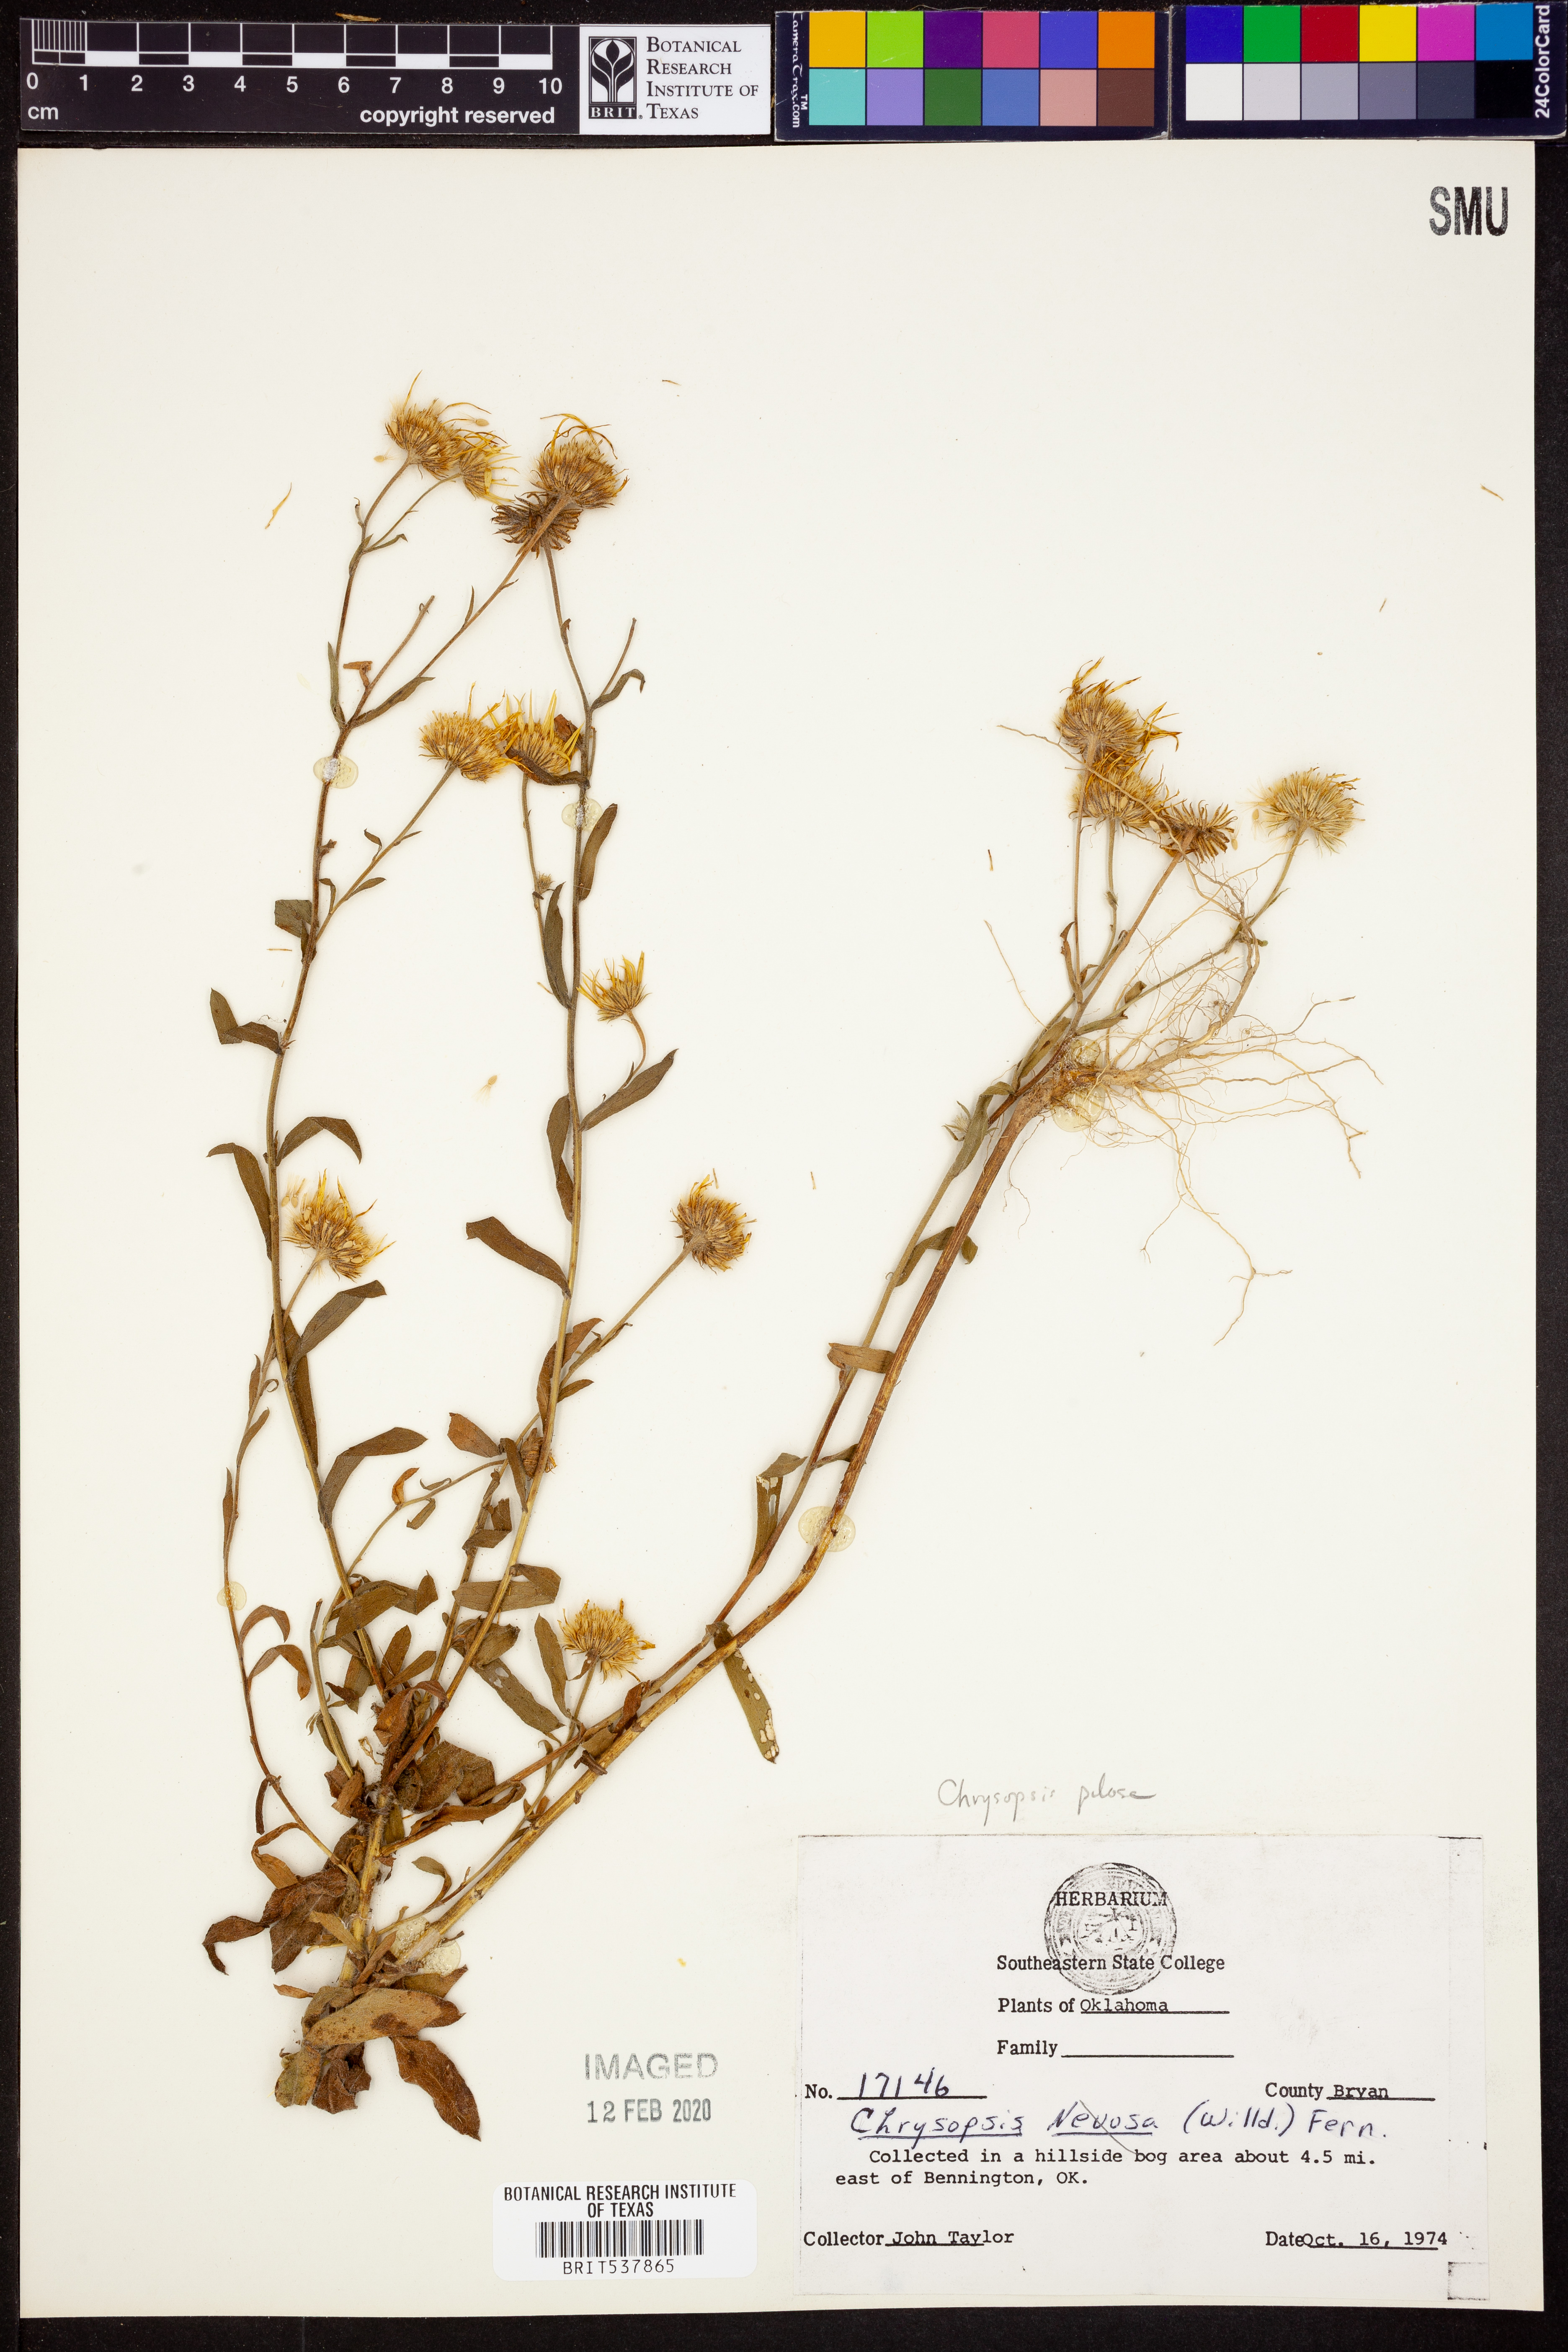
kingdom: Plantae
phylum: Tracheophyta
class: Magnoliopsida
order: Asterales
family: Asteraceae
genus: Bradburia
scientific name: Bradburia pilosa
